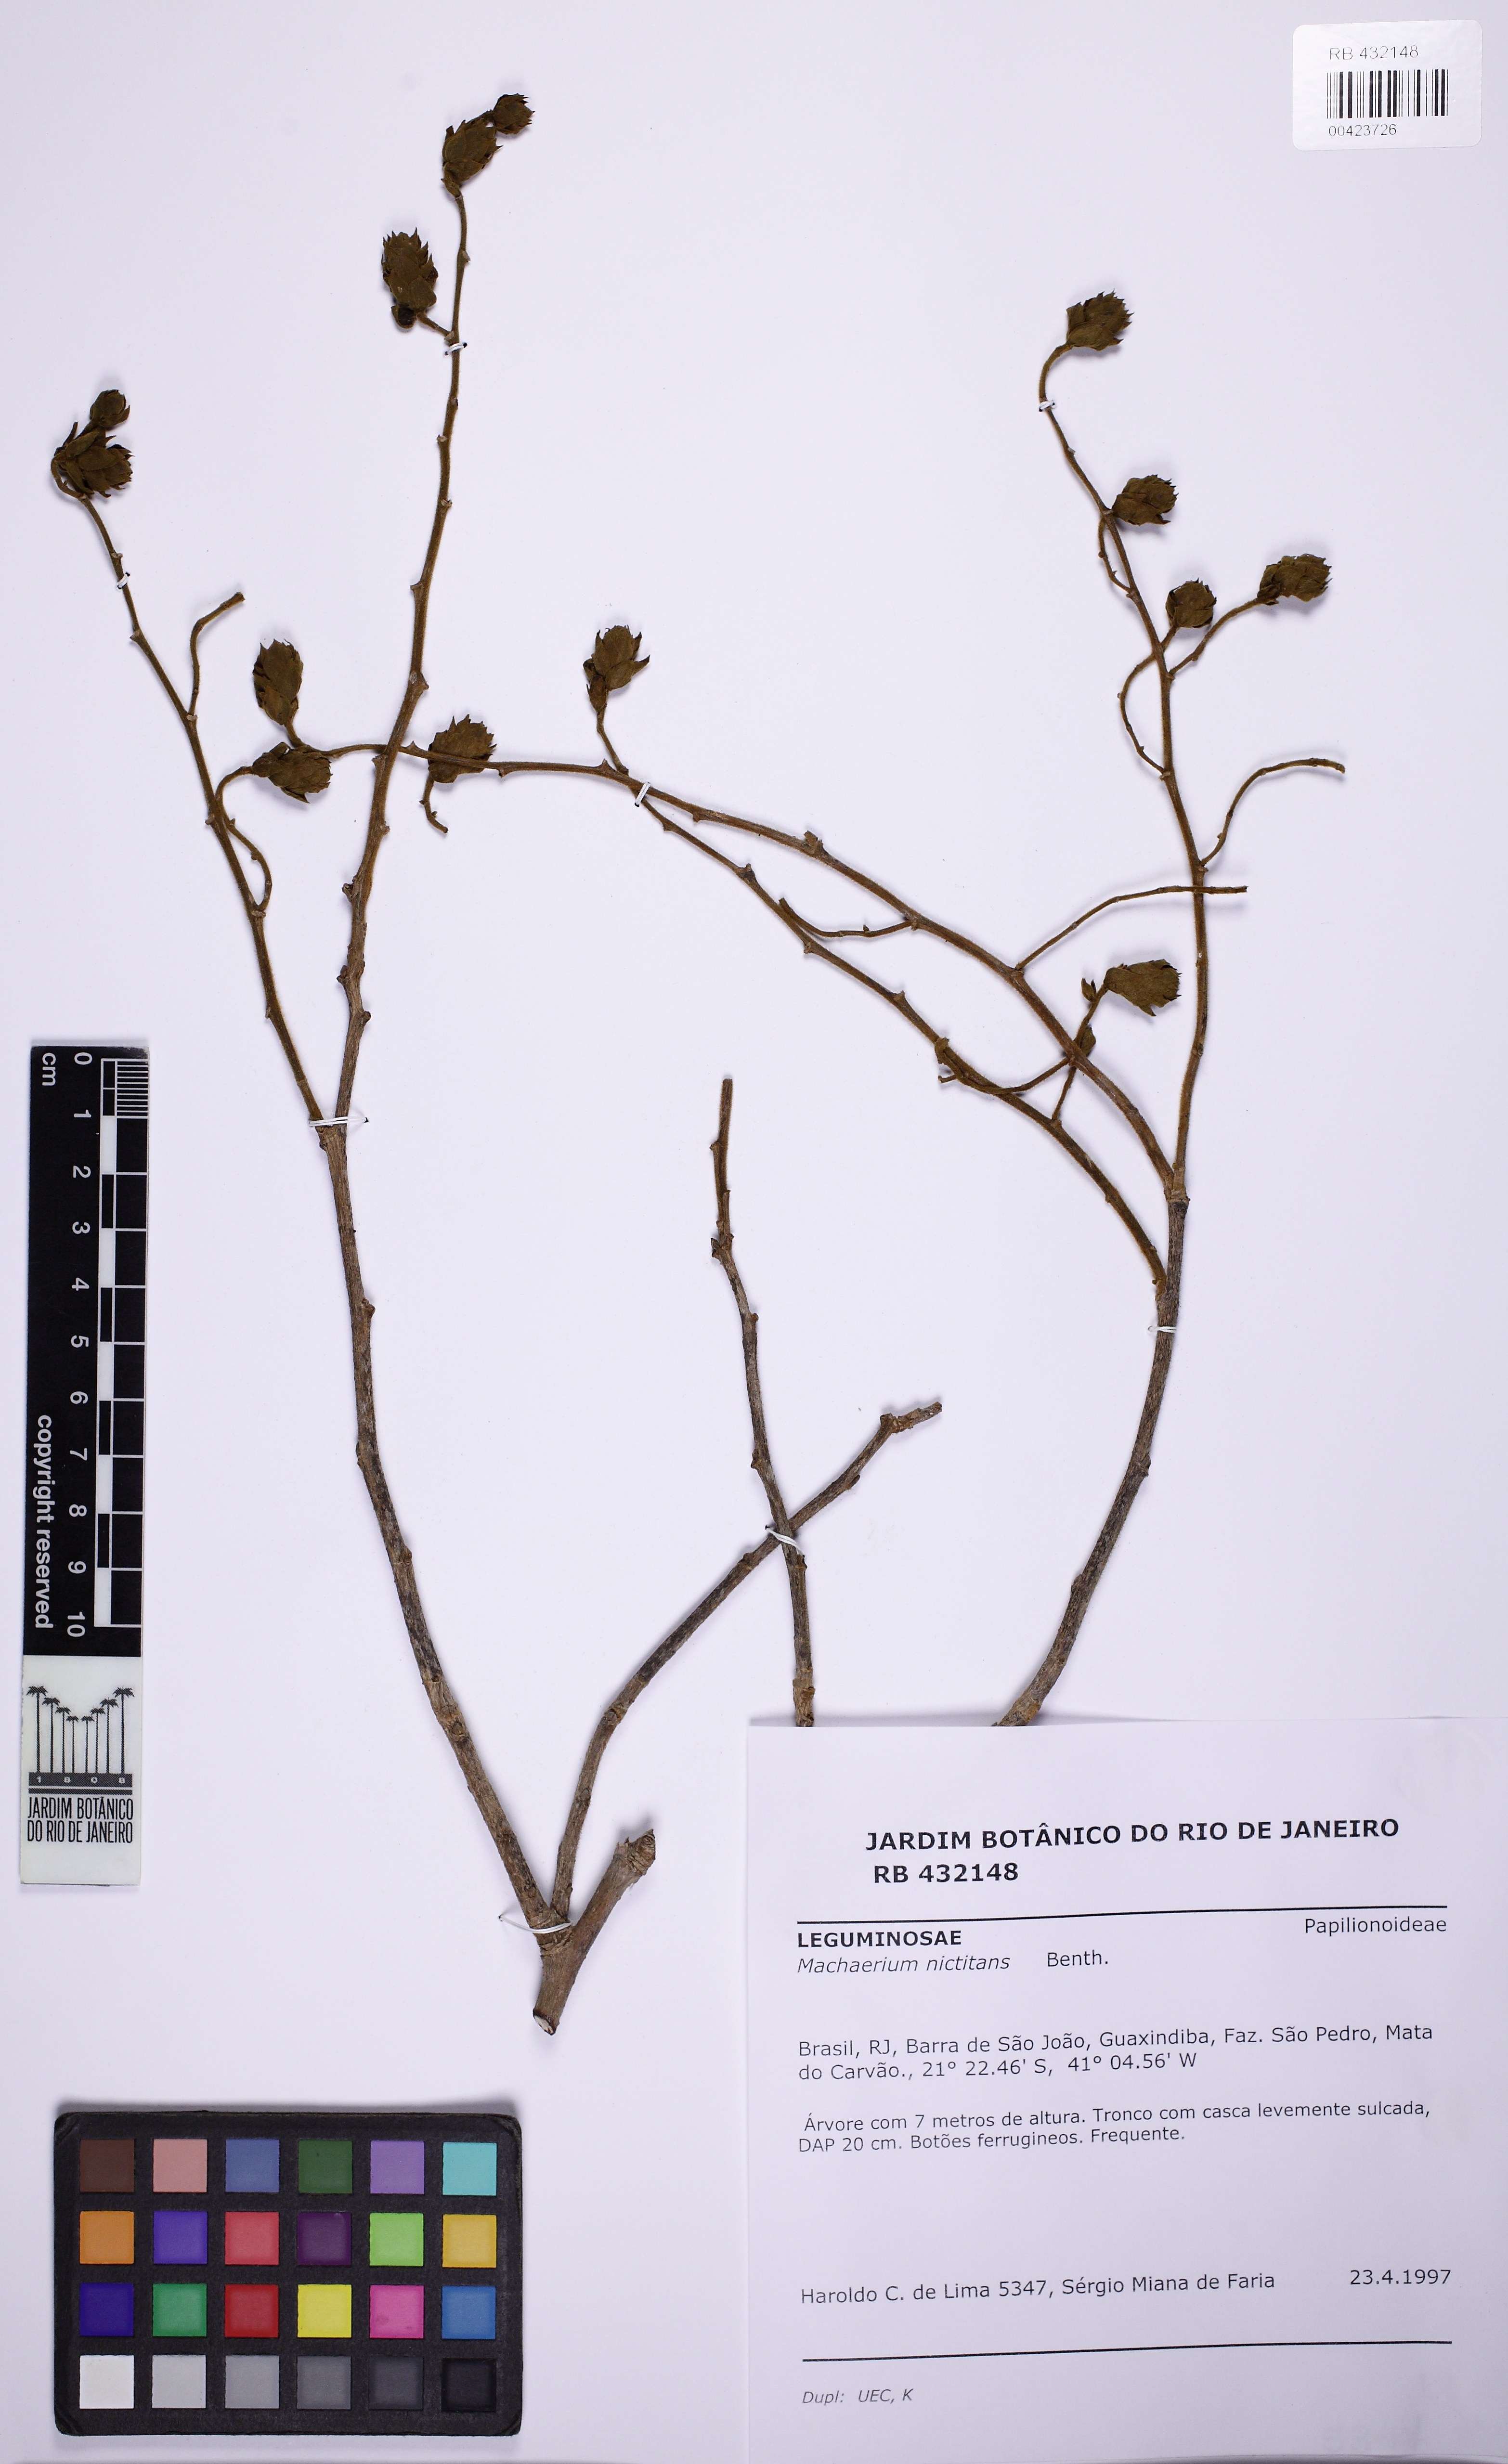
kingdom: Plantae
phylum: Tracheophyta
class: Magnoliopsida
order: Fabales
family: Fabaceae
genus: Machaerium
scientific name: Machaerium nyctitans
